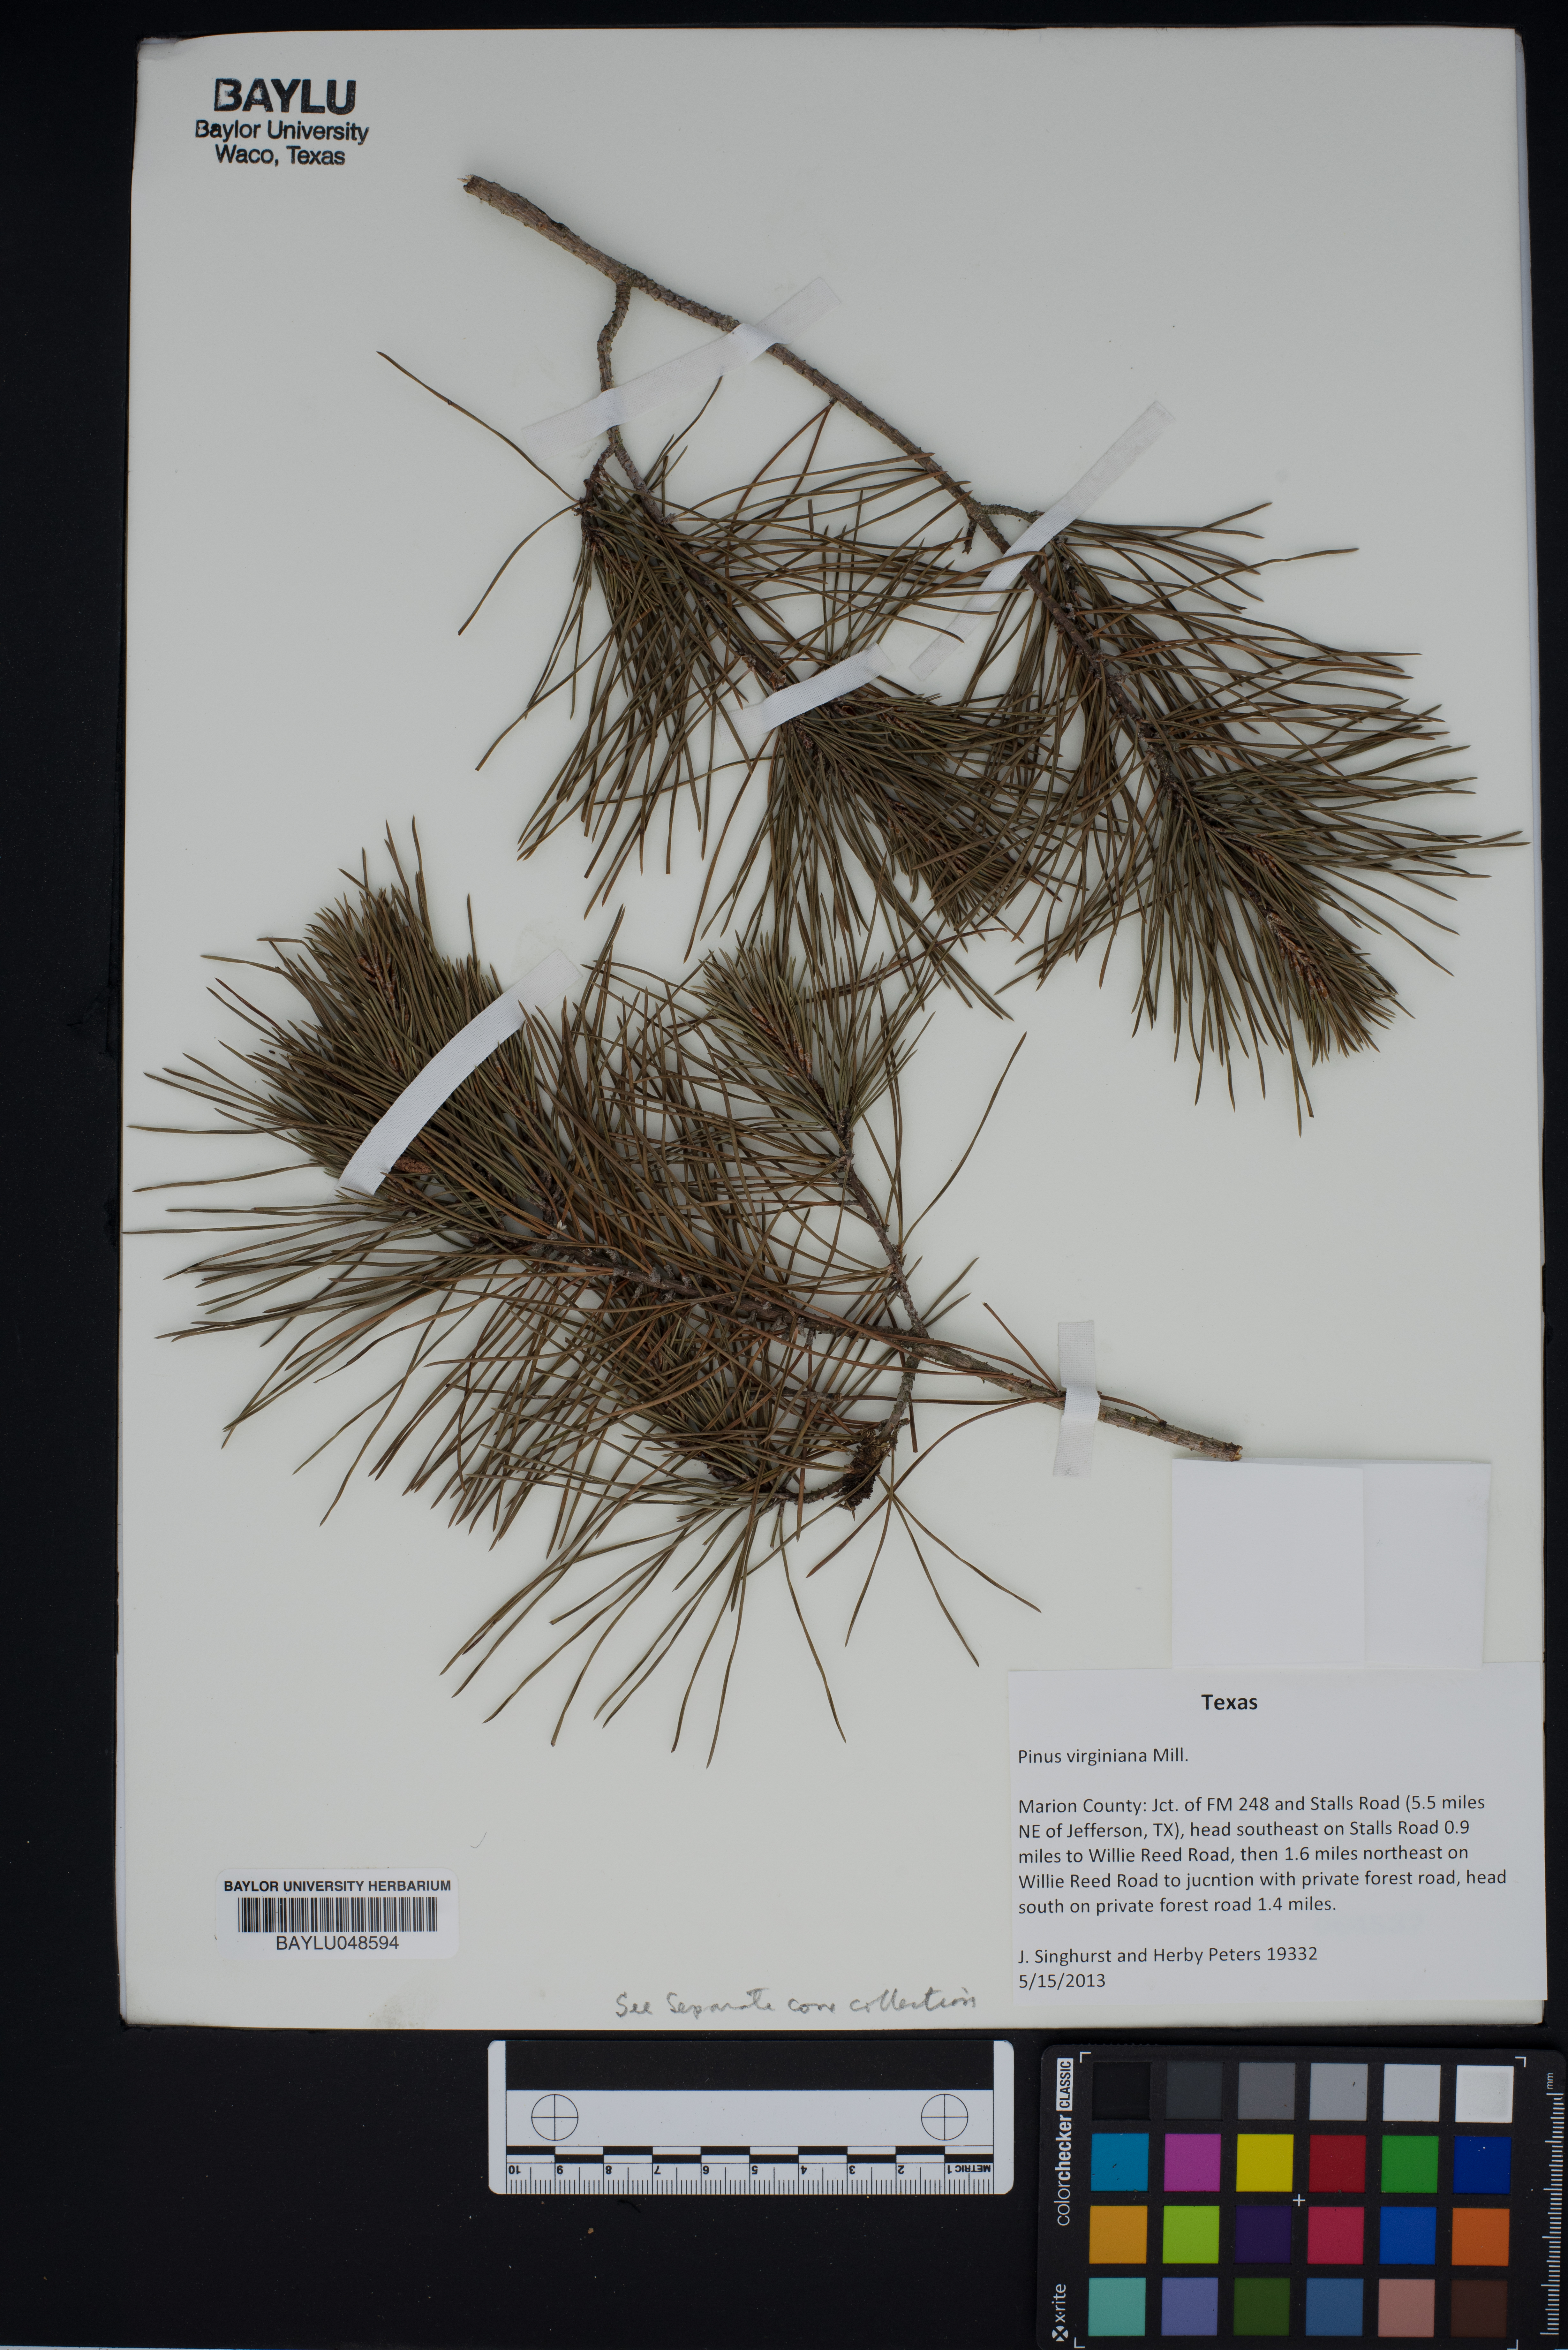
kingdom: Plantae
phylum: Tracheophyta
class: Pinopsida
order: Pinales
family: Pinaceae
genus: Pinus
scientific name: Pinus virginiana
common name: Scrub pine
